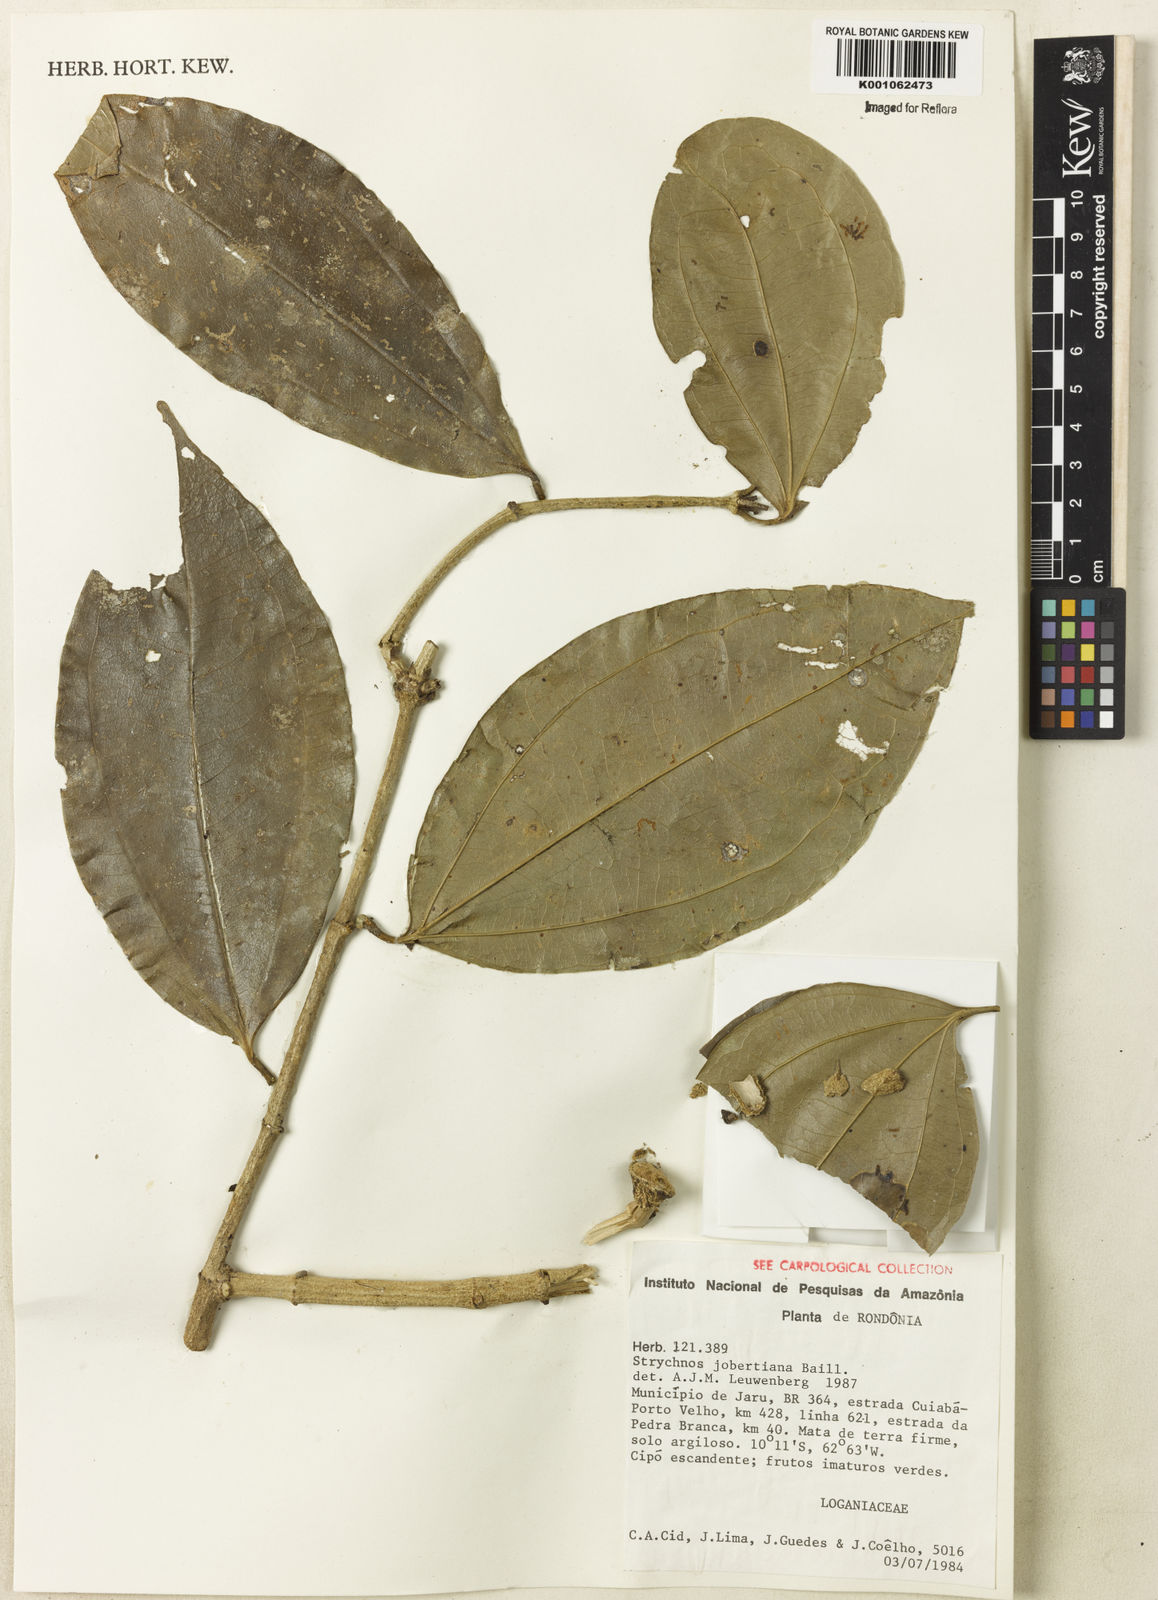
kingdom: Plantae
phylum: Tracheophyta
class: Magnoliopsida
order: Gentianales
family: Loganiaceae
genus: Strychnos
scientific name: Strychnos jobertiana
